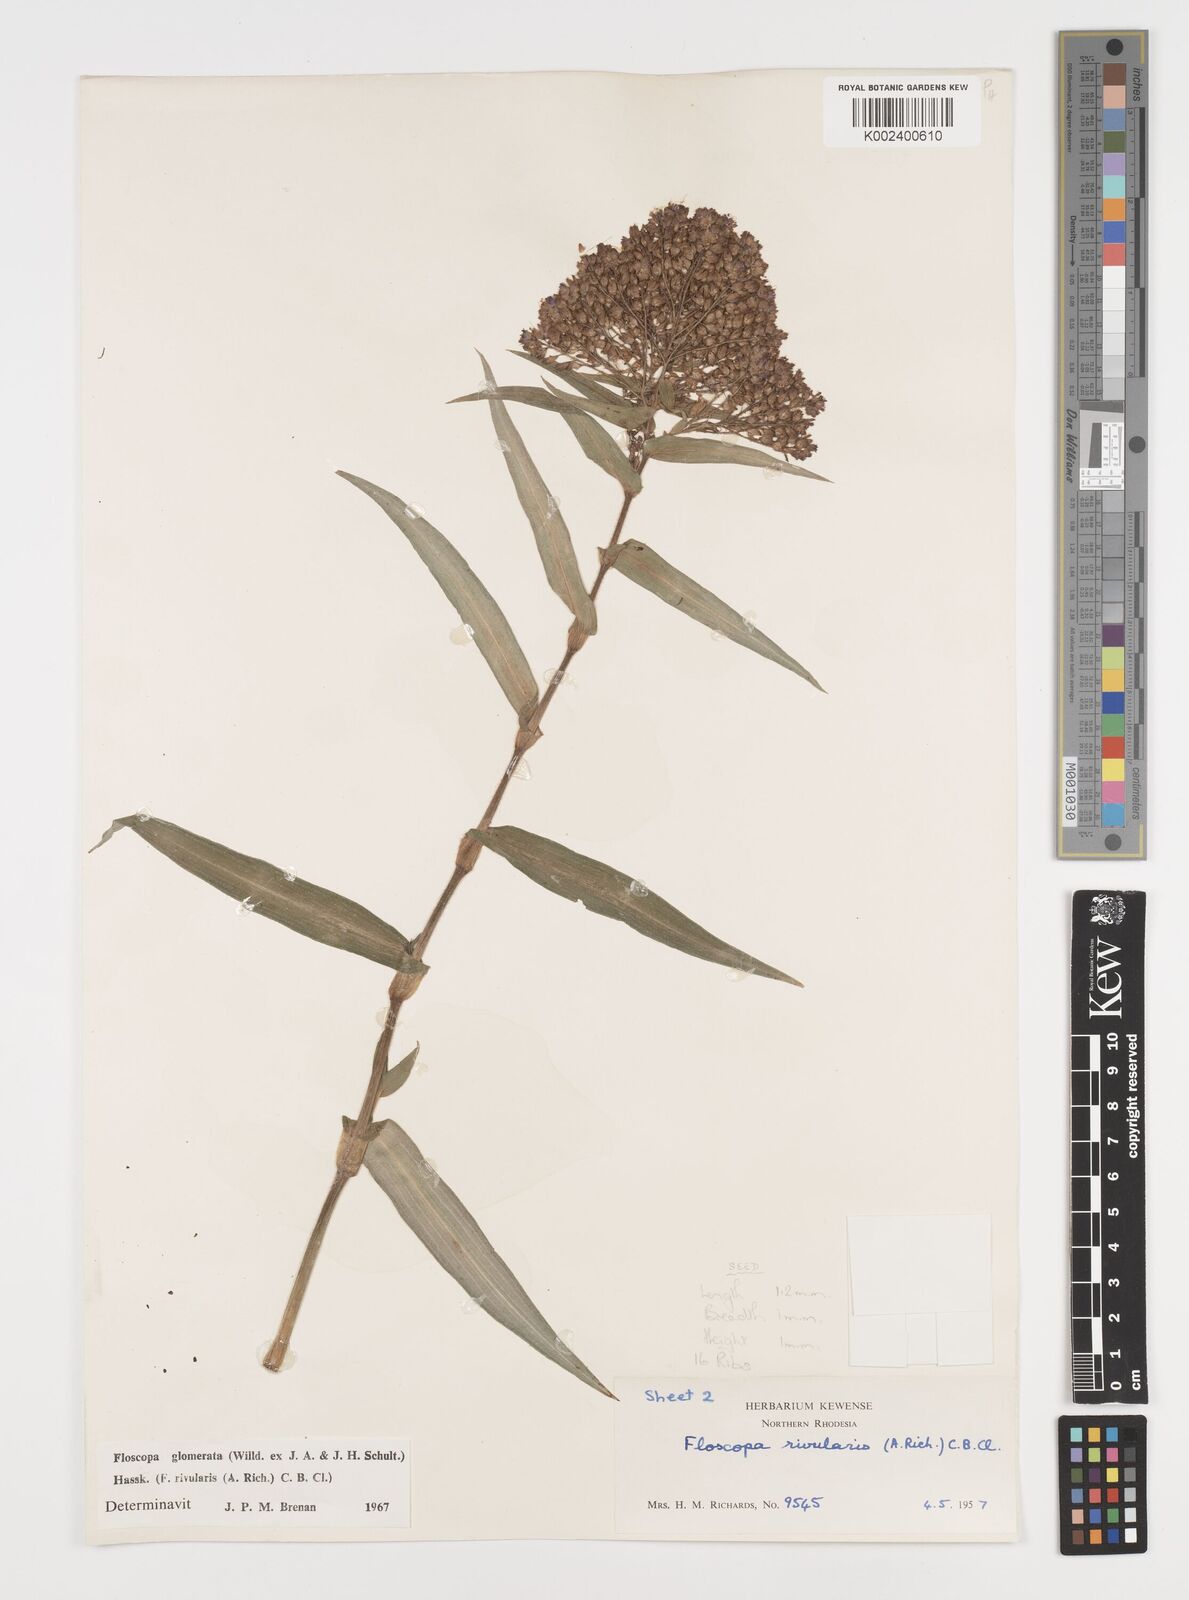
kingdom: Plantae
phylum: Tracheophyta
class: Liliopsida
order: Commelinales
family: Commelinaceae
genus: Floscopa
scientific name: Floscopa glomerata
